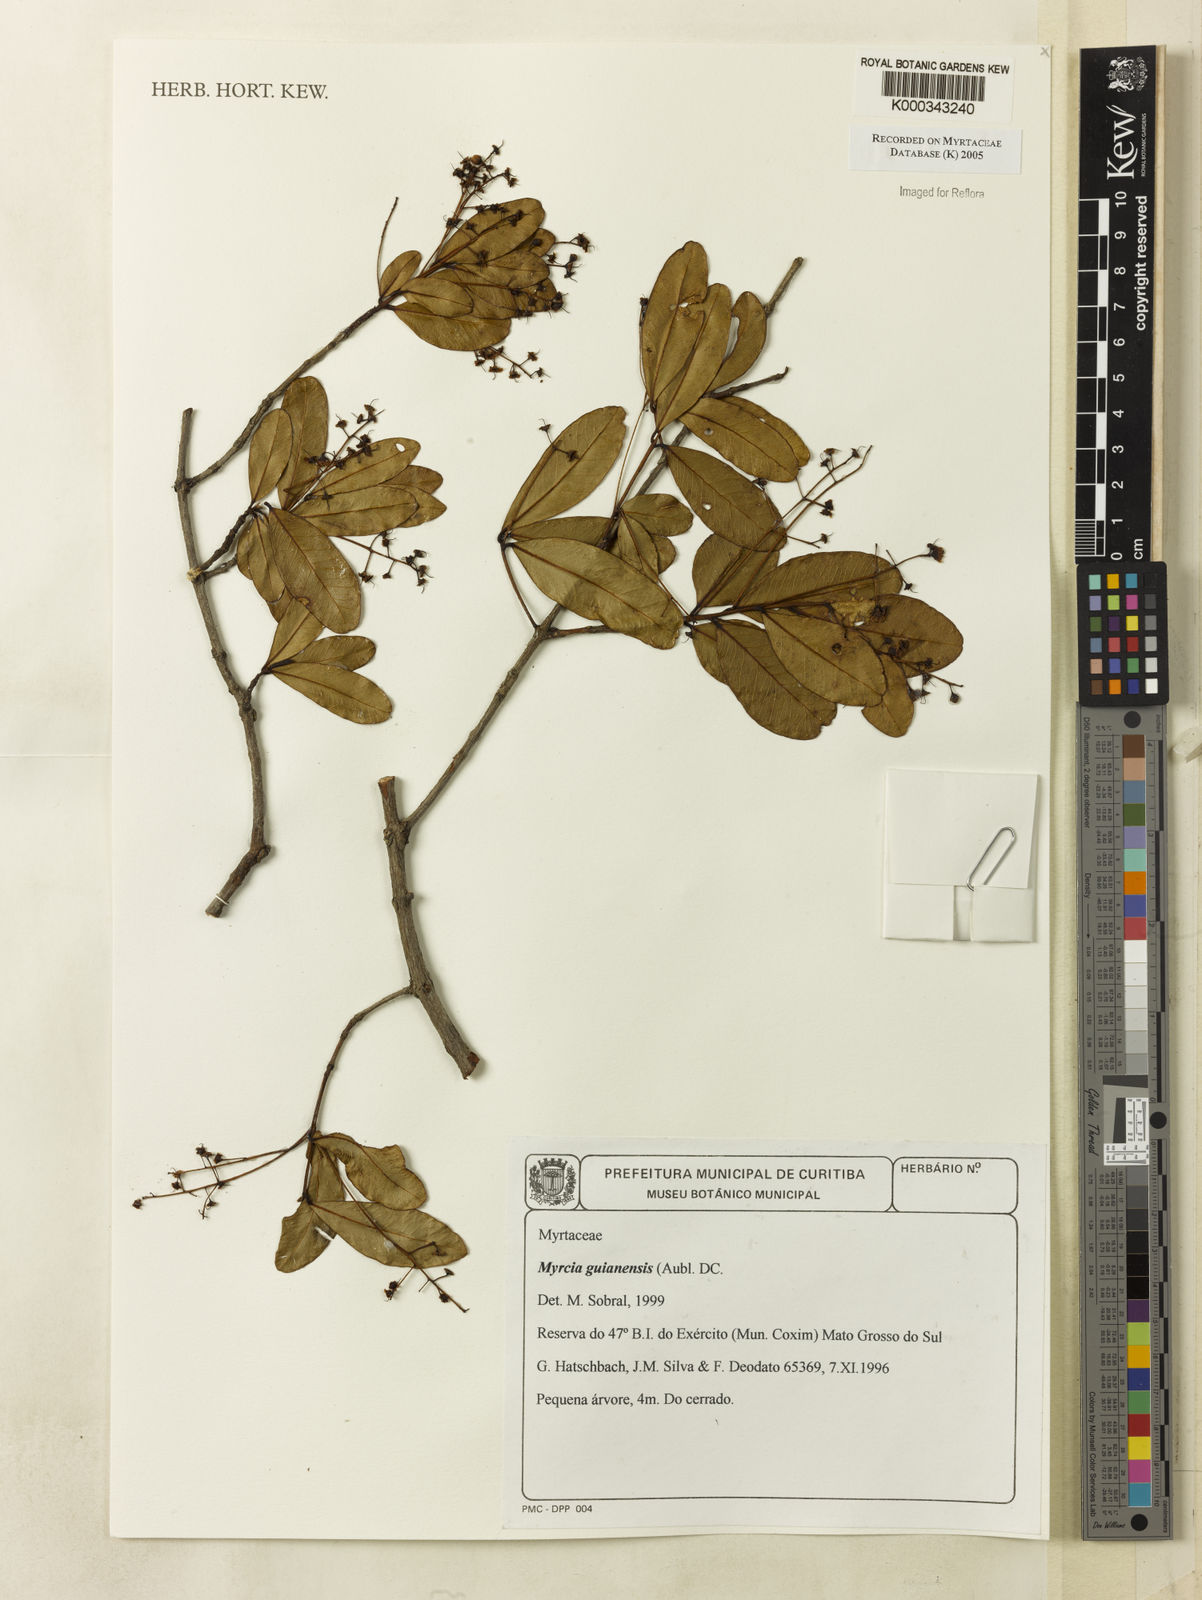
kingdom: Plantae
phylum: Tracheophyta
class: Magnoliopsida
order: Myrtales
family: Myrtaceae
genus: Myrcia
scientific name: Myrcia guianensis
